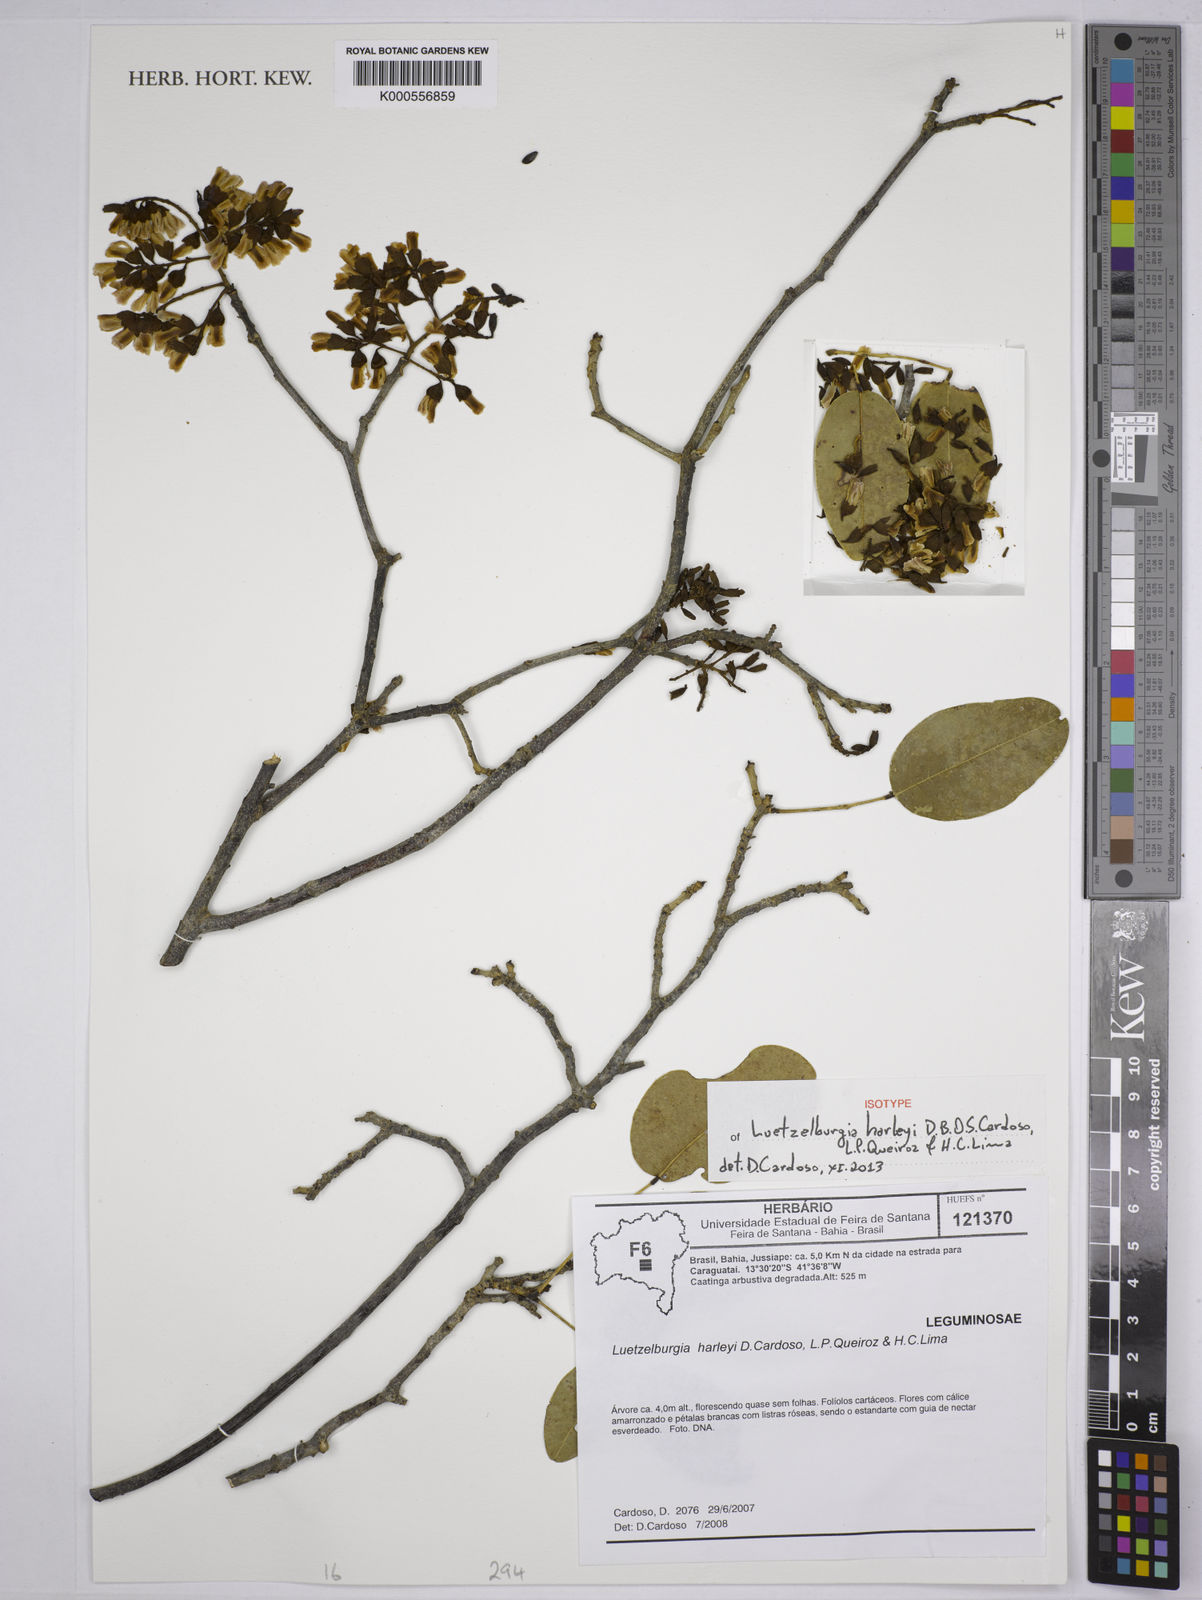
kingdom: Plantae
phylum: Tracheophyta
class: Magnoliopsida
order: Fabales
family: Fabaceae
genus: Luetzelburgia
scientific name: Luetzelburgia harleyi
